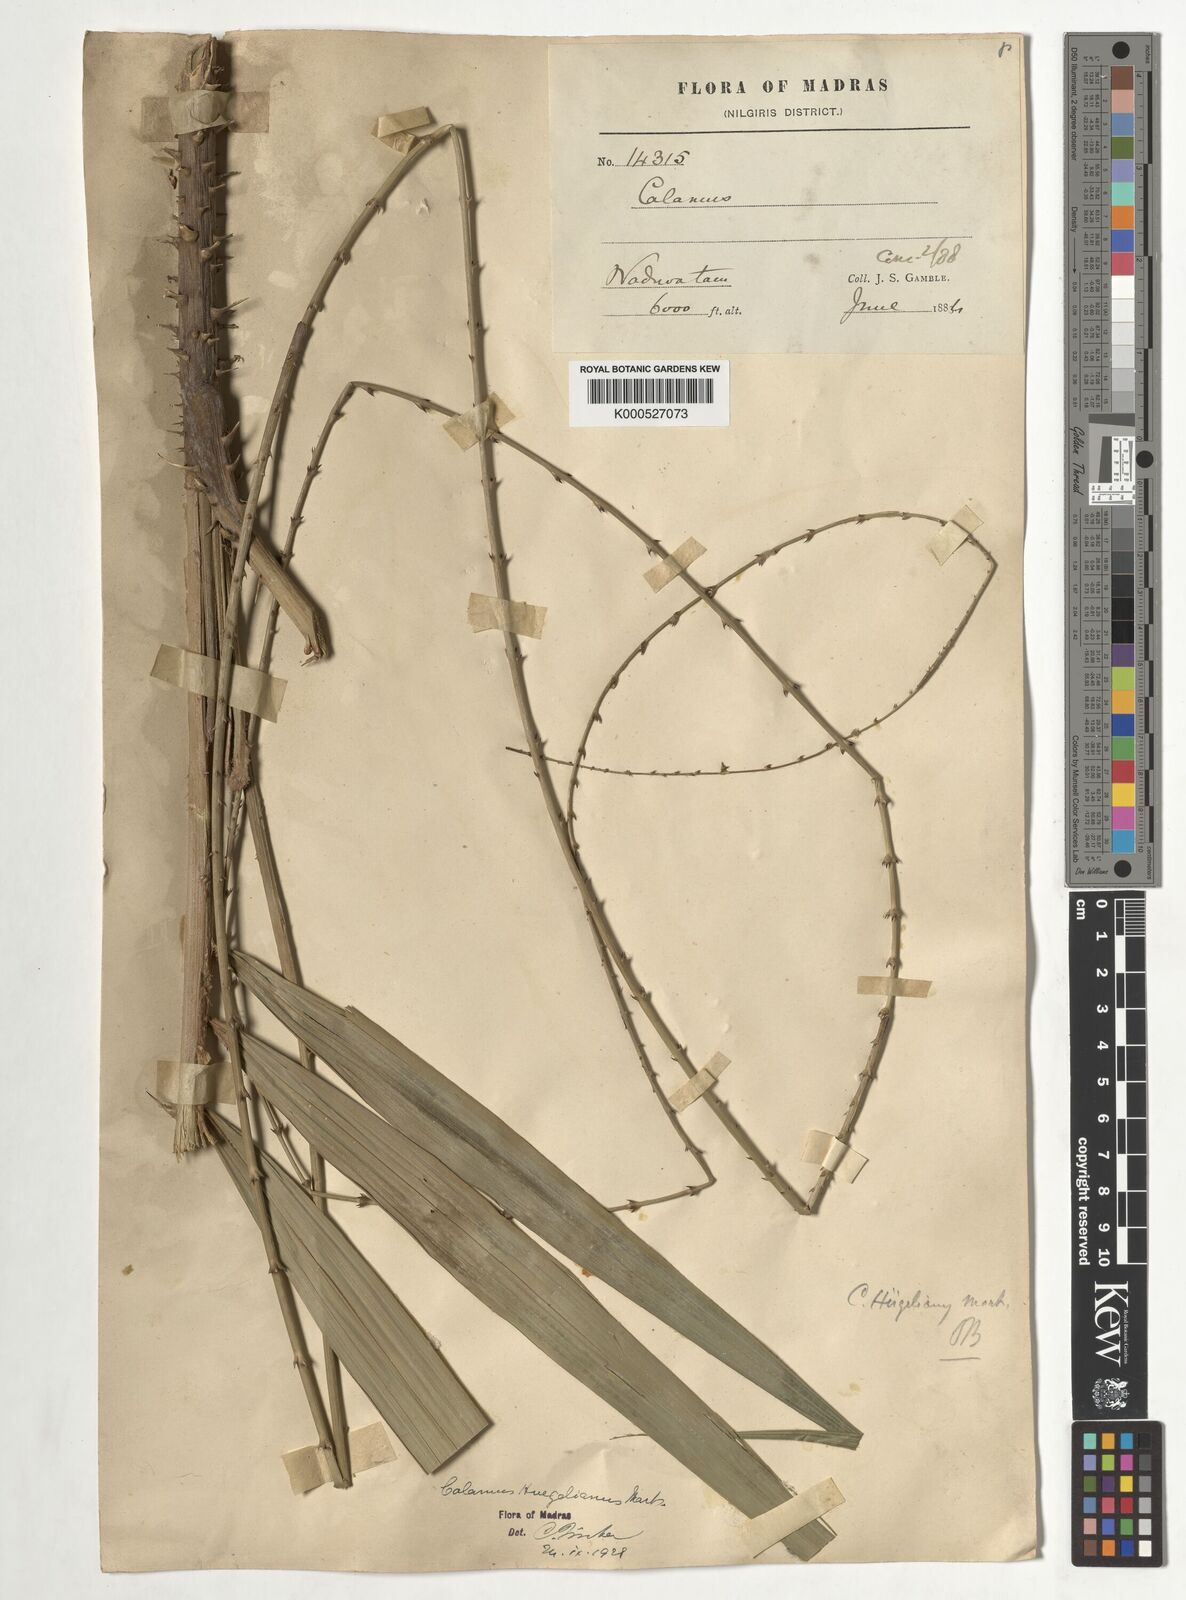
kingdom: Plantae
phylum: Tracheophyta
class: Liliopsida
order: Arecales
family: Arecaceae
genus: Calamus
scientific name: Calamus wightii
